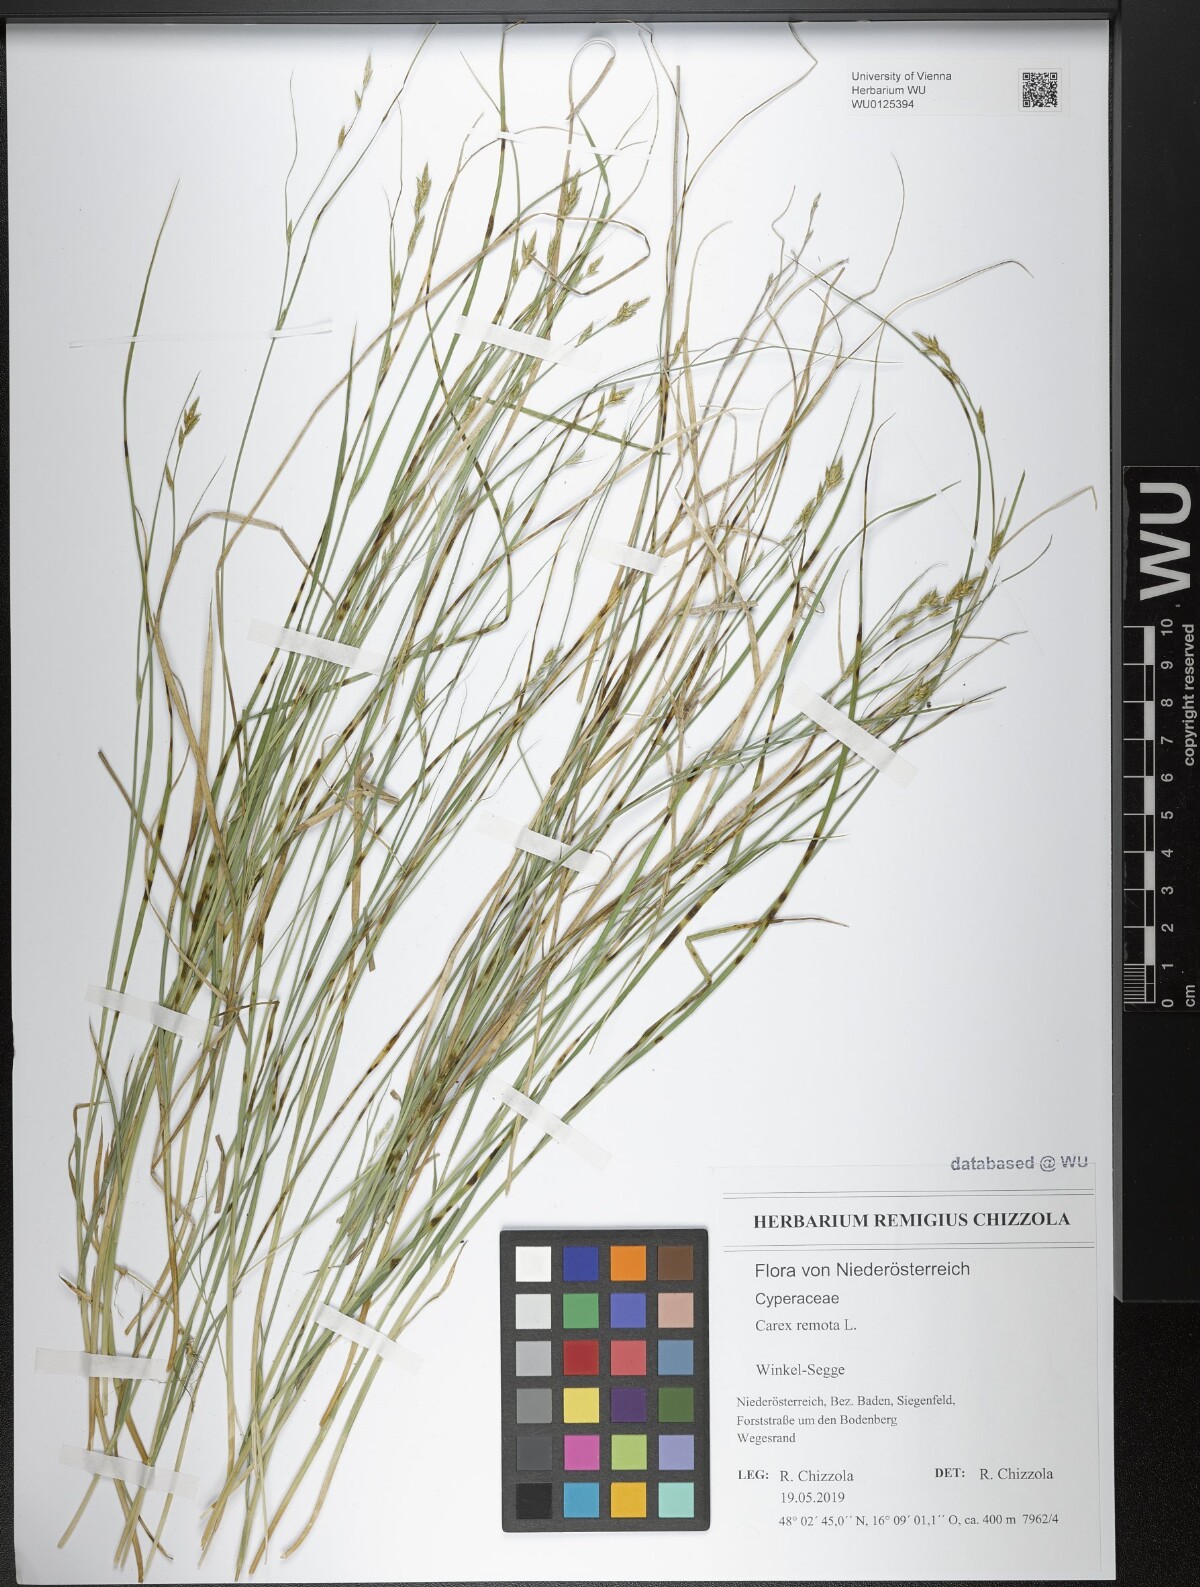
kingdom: Plantae
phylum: Tracheophyta
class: Liliopsida
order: Poales
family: Cyperaceae
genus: Carex
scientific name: Carex remota
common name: Remote sedge
